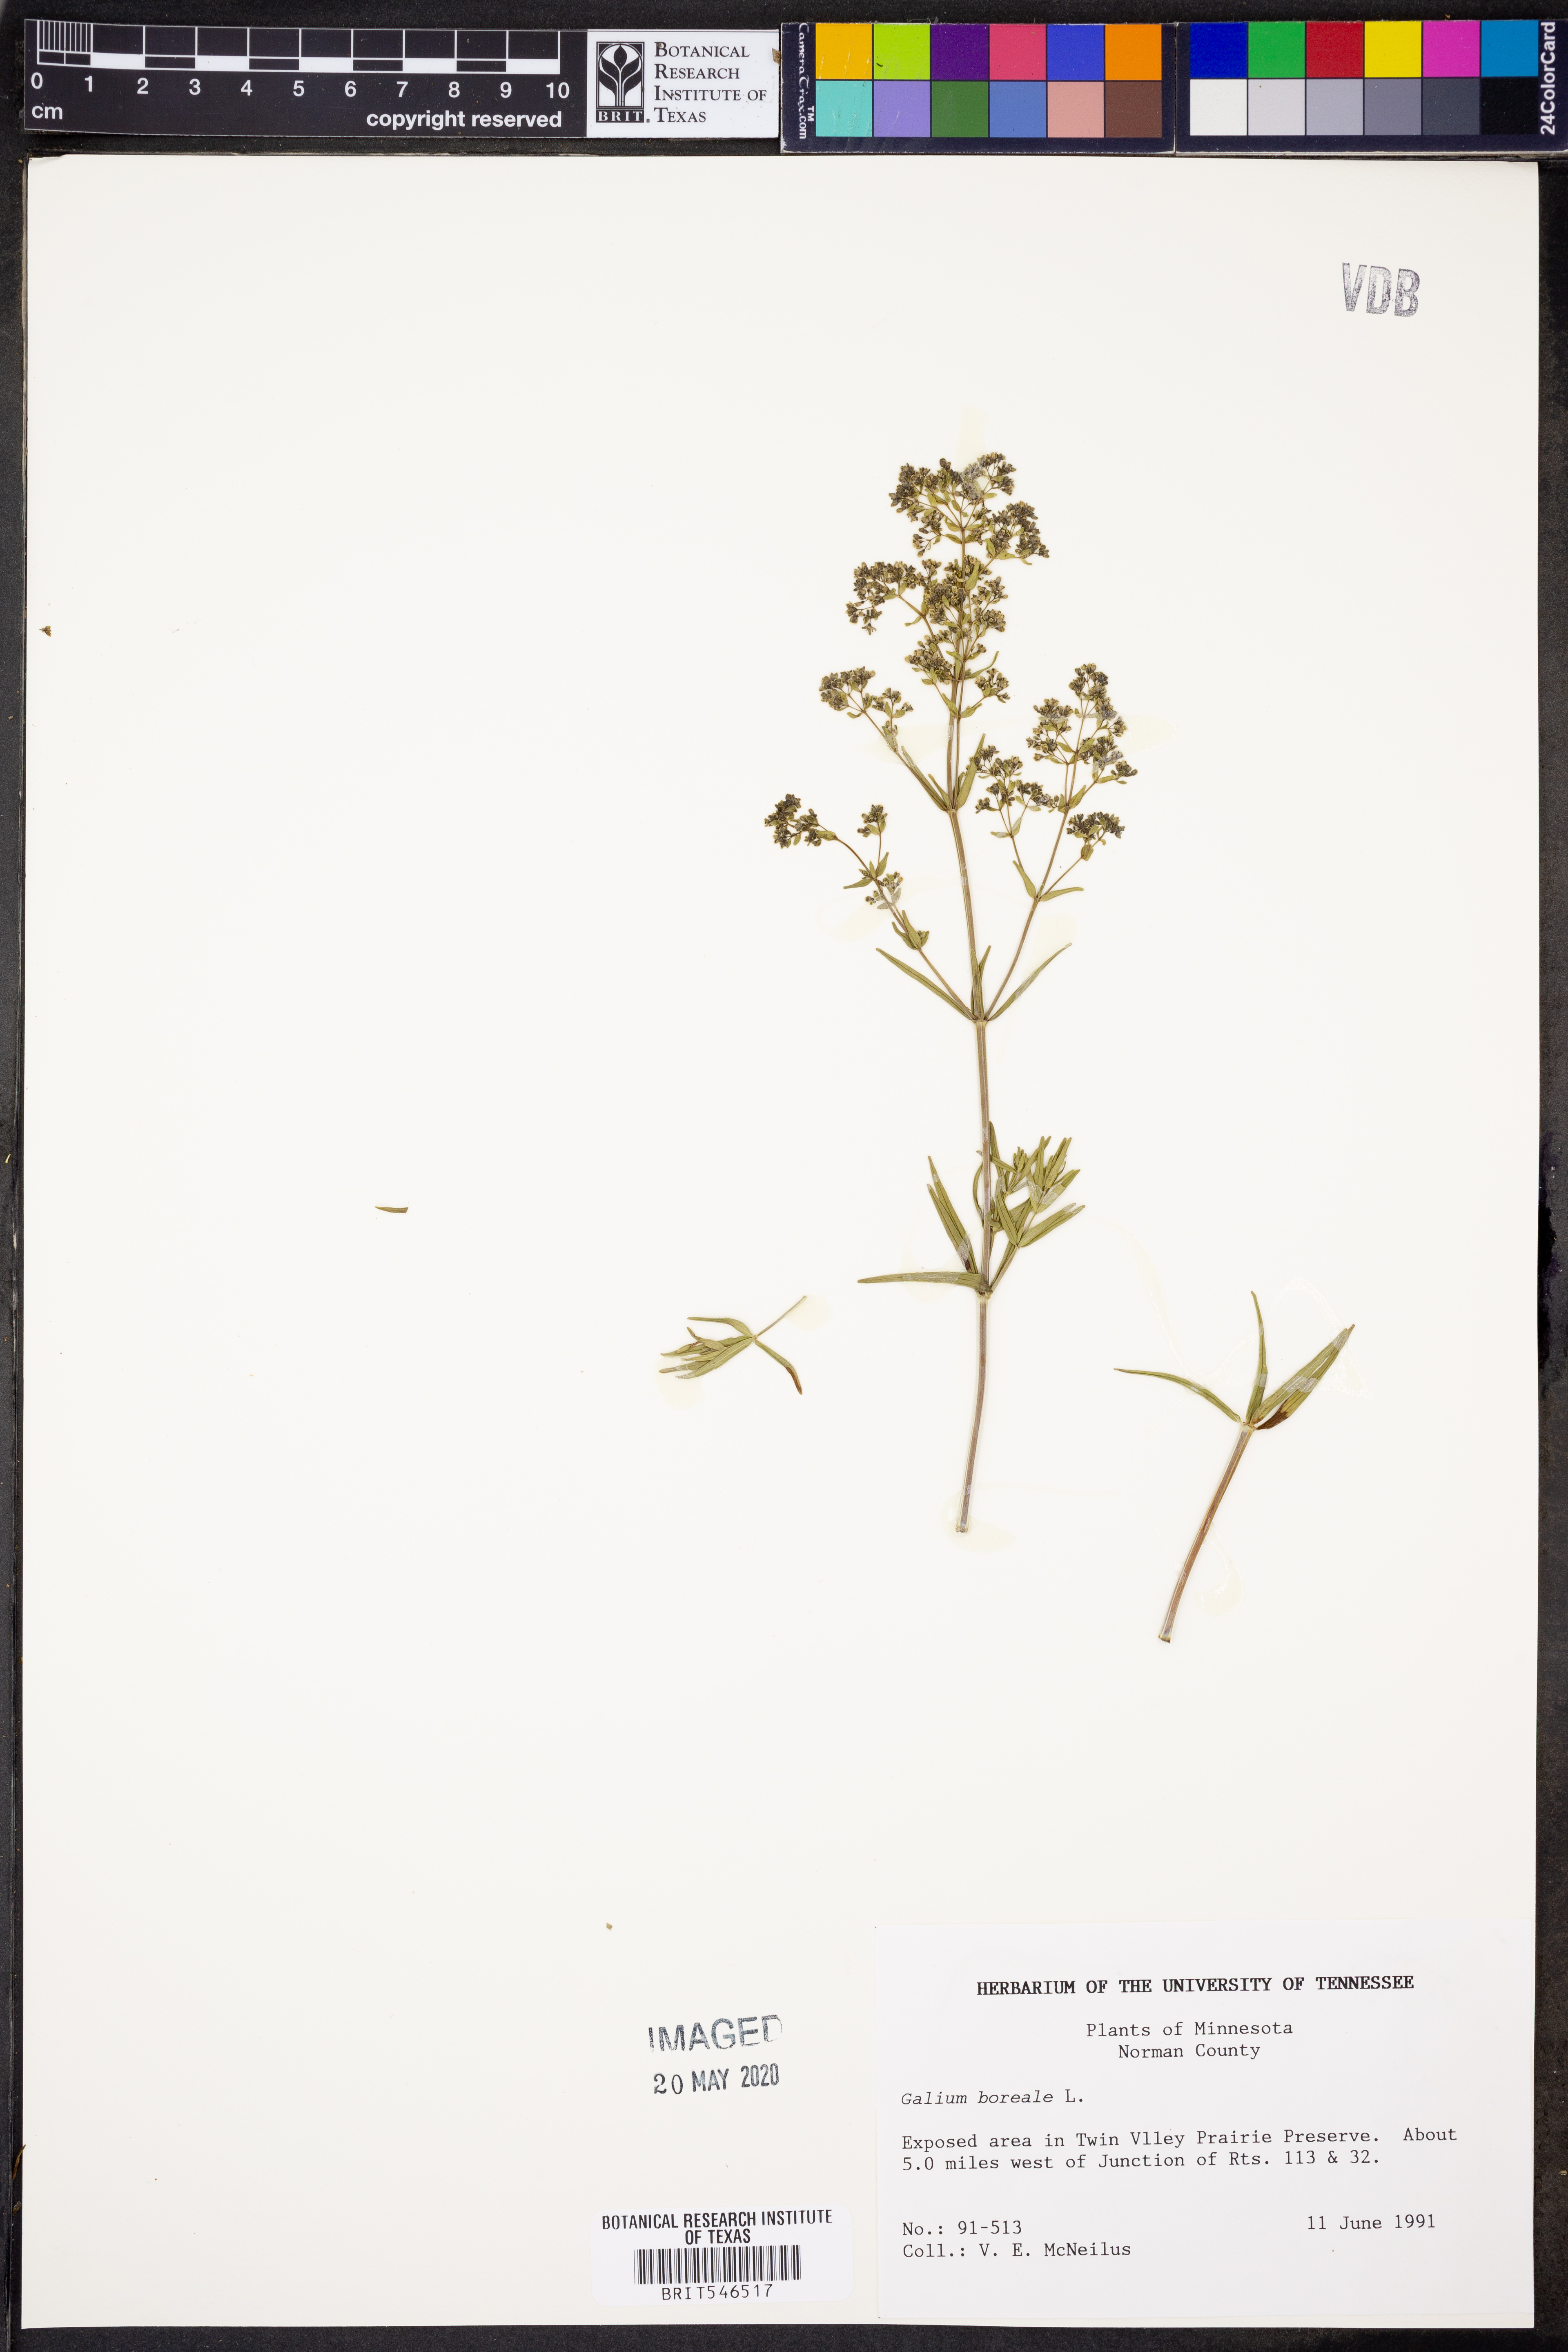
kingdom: Plantae
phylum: Tracheophyta
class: Magnoliopsida
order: Gentianales
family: Rubiaceae
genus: Galium
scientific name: Galium boreale
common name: Northern bedstraw
